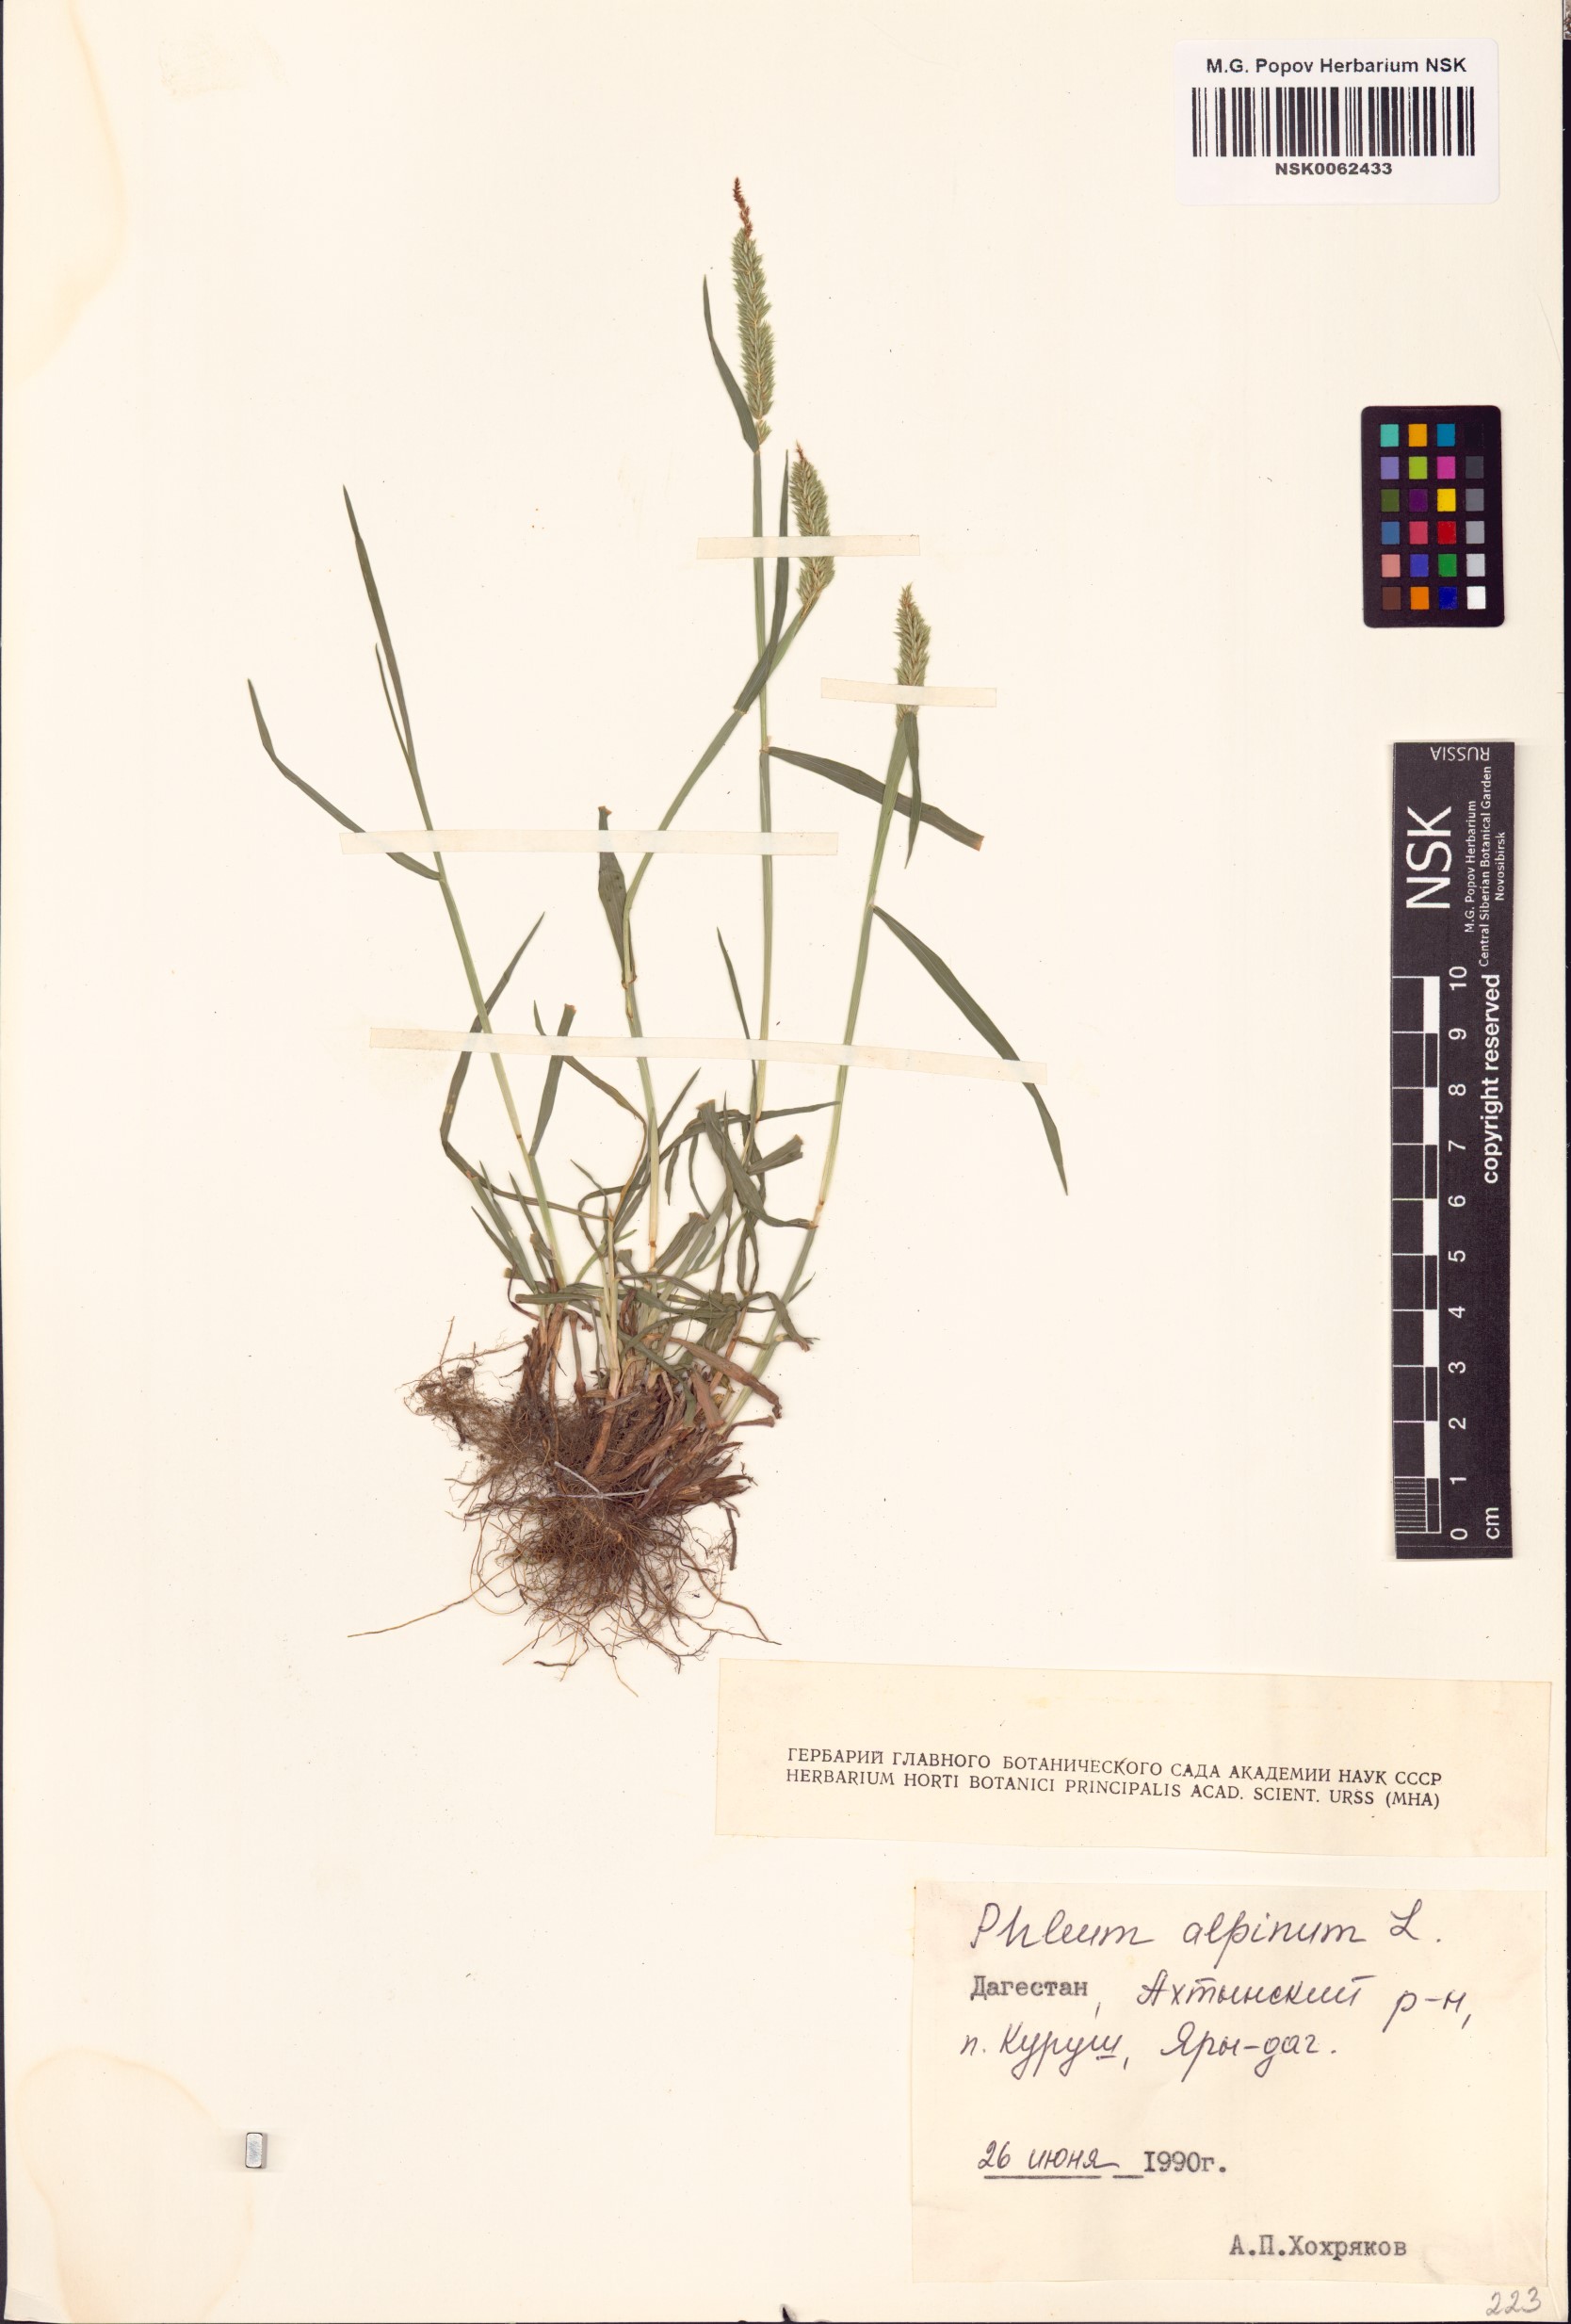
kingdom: Plantae
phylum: Tracheophyta
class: Liliopsida
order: Poales
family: Poaceae
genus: Phleum
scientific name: Phleum alpinum
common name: Alpine cat's-tail
